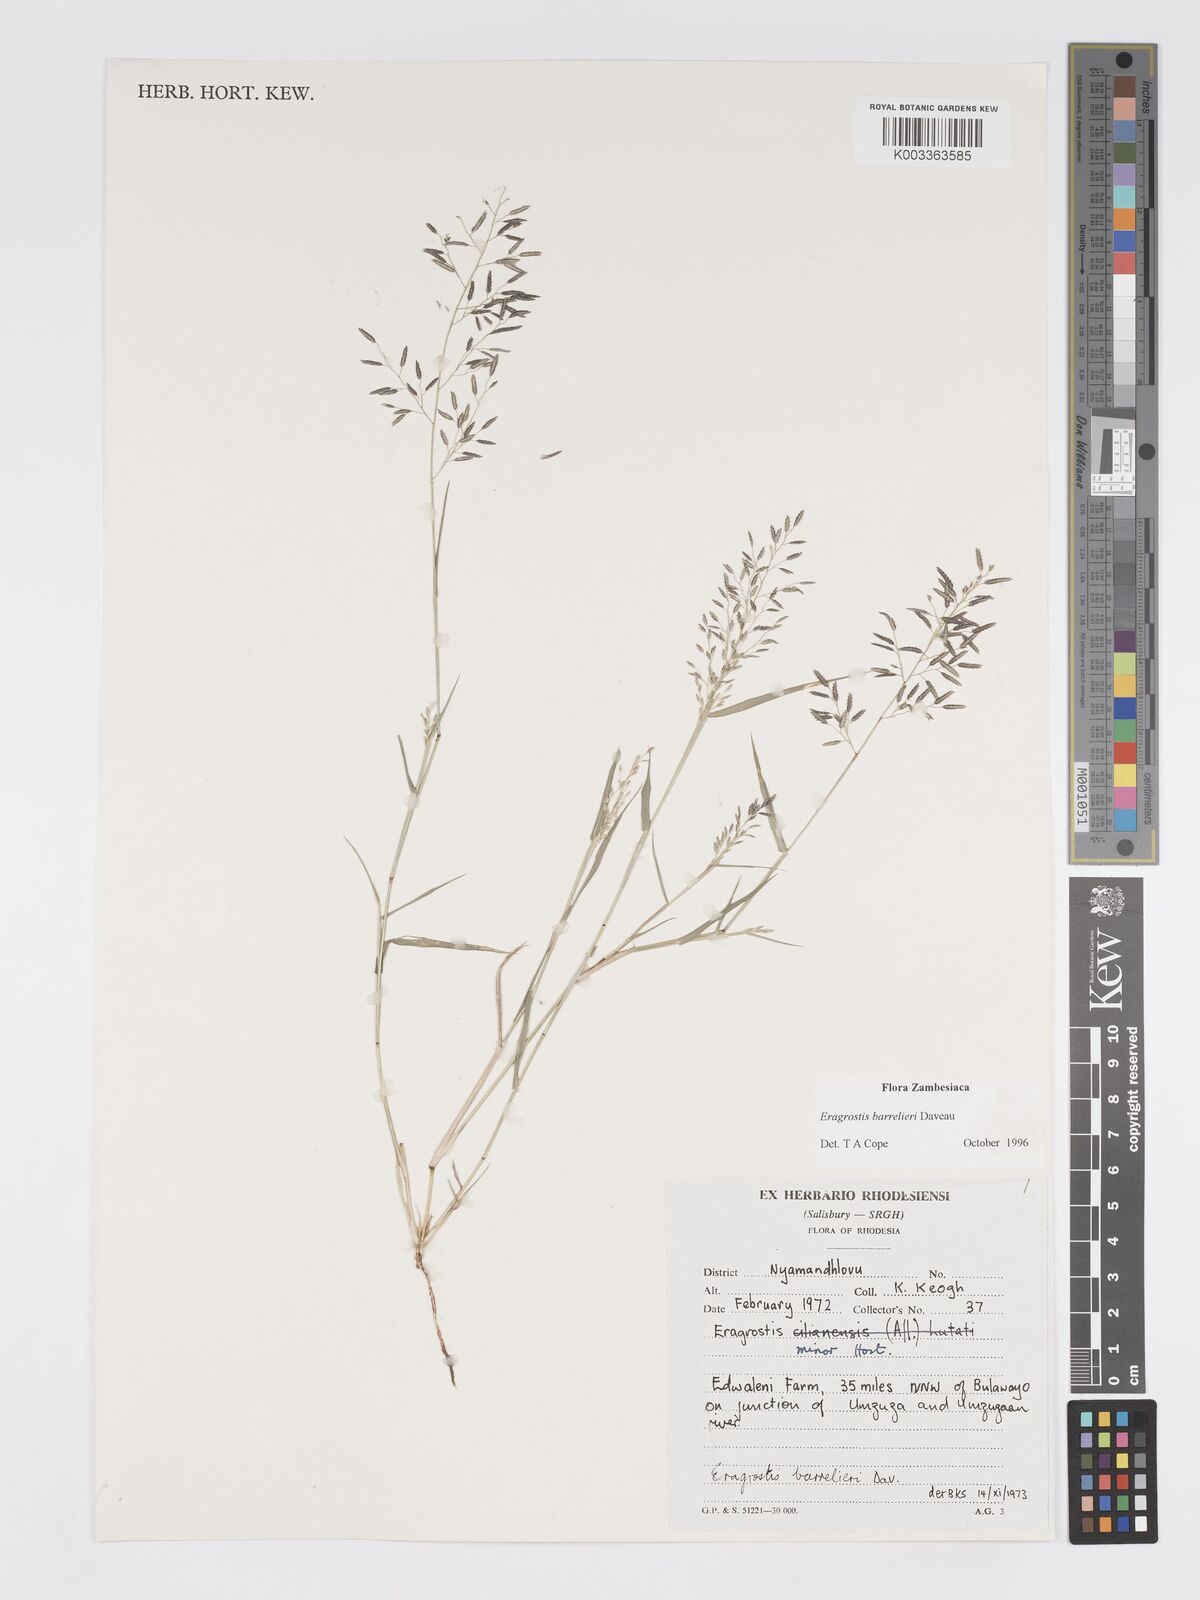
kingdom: Plantae
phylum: Tracheophyta
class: Liliopsida
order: Poales
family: Poaceae
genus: Eragrostis
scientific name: Eragrostis barrelieri
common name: Mediterranean lovegrass
